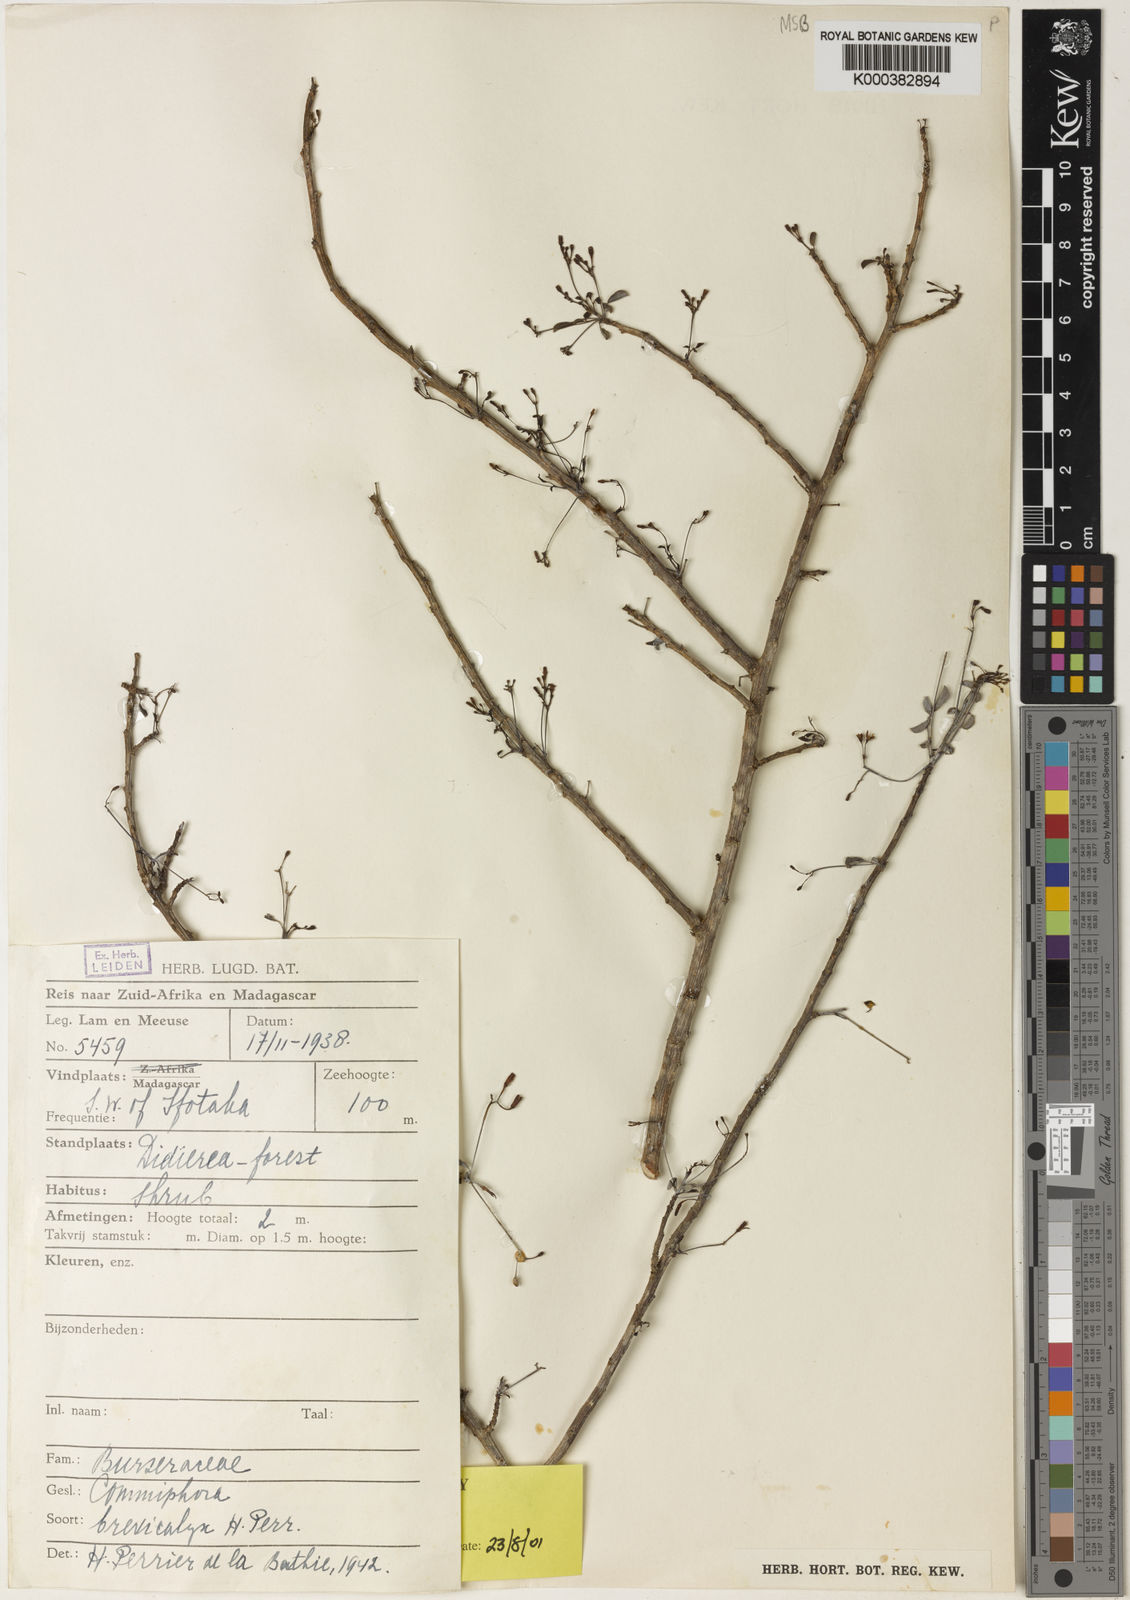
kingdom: Plantae
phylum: Tracheophyta
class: Magnoliopsida
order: Sapindales
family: Burseraceae
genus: Commiphora
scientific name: Commiphora brevicalyx
